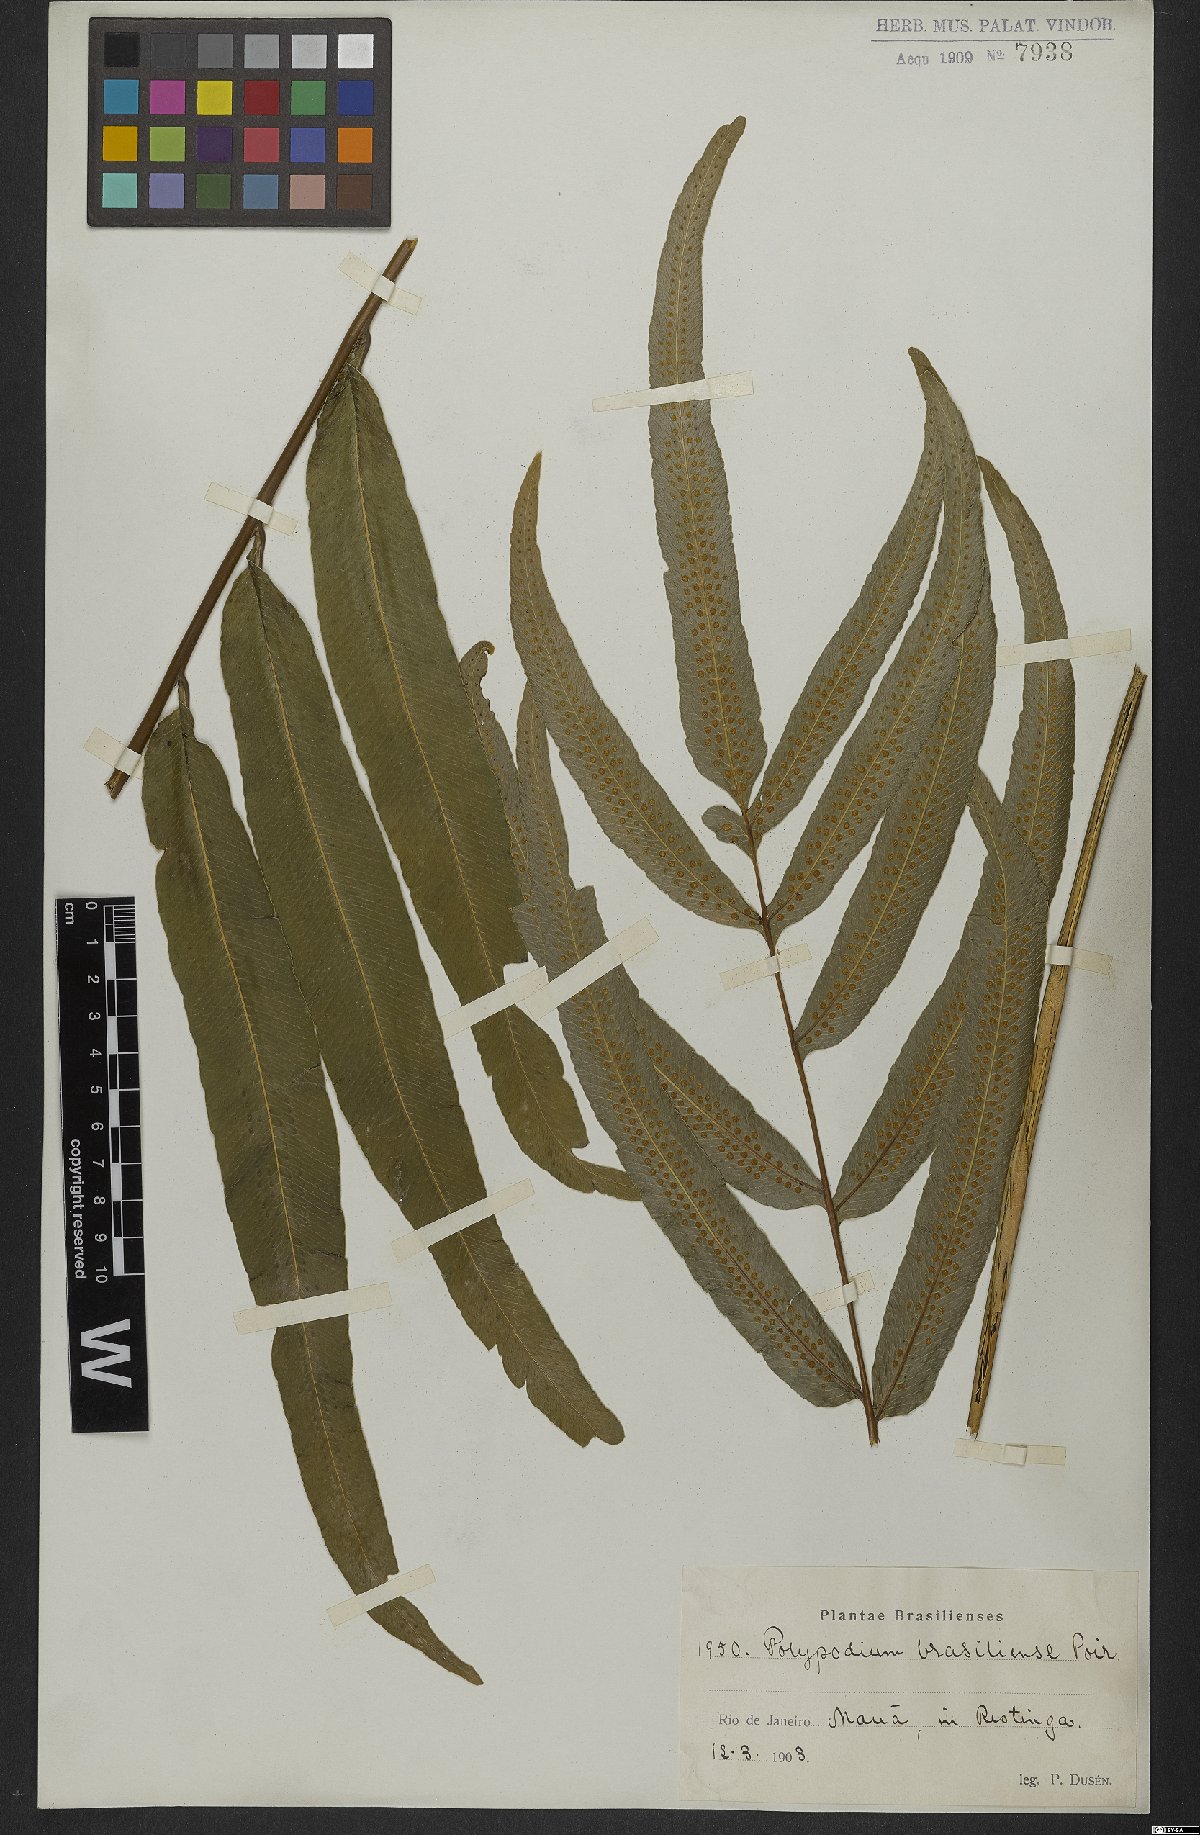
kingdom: Plantae
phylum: Tracheophyta
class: Polypodiopsida
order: Polypodiales
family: Polypodiaceae
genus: Serpocaulon
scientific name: Serpocaulon triseriale
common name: Angle-vein fern
